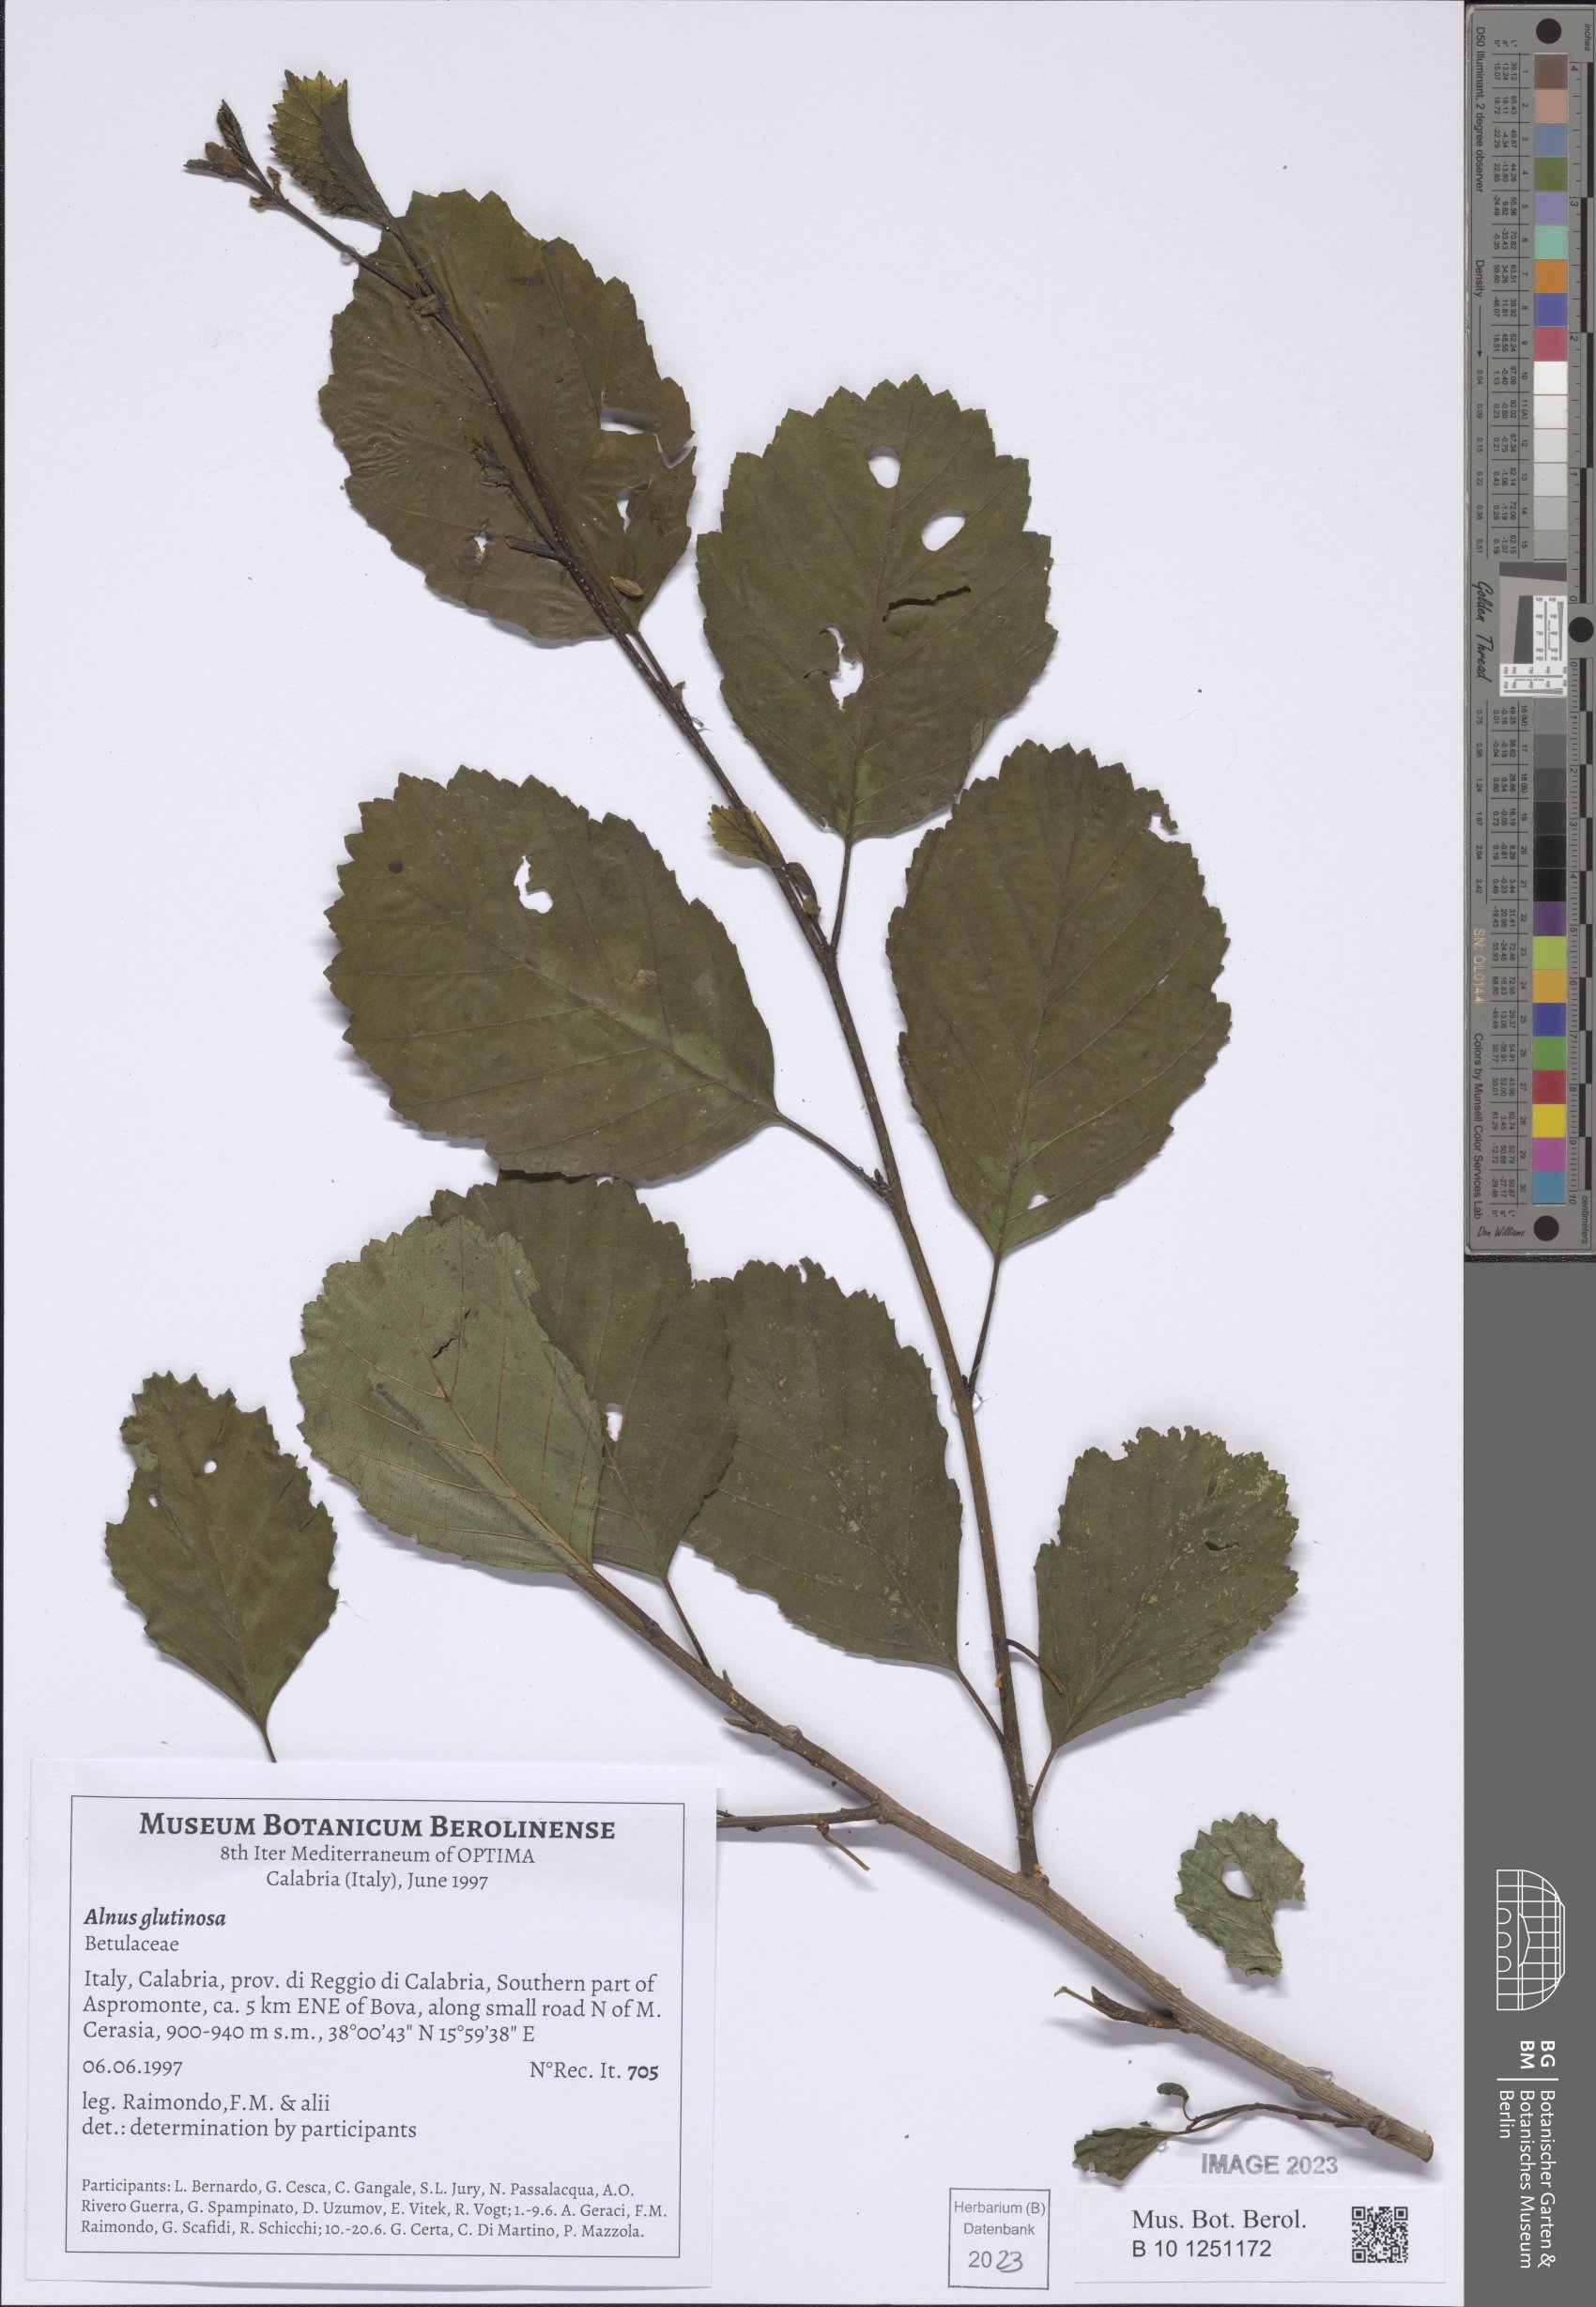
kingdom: Plantae
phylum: Tracheophyta
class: Magnoliopsida
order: Fagales
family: Betulaceae
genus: Alnus
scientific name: Alnus glutinosa
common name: Black alder
